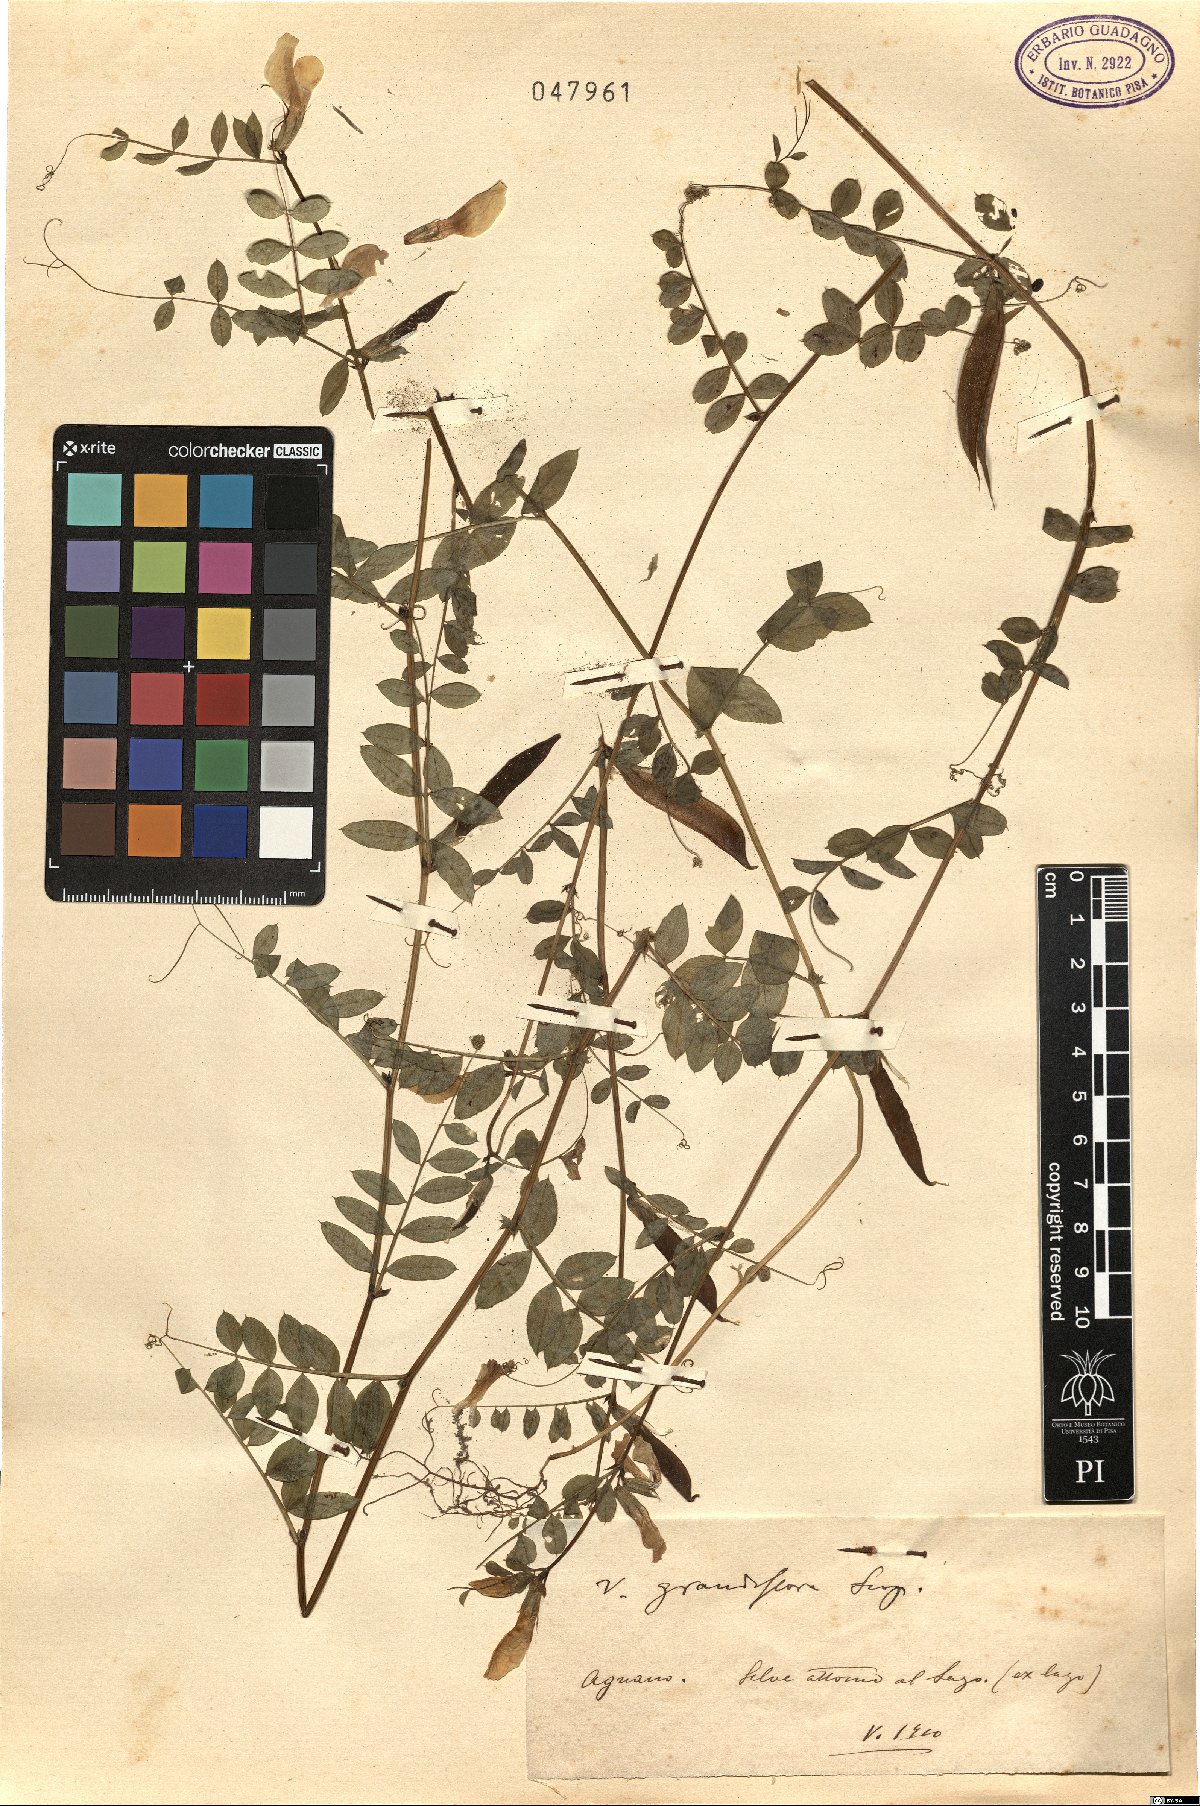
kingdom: Plantae
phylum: Tracheophyta
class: Magnoliopsida
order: Fabales
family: Fabaceae
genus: Vicia
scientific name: Vicia grandiflora
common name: Large yellow vetch
